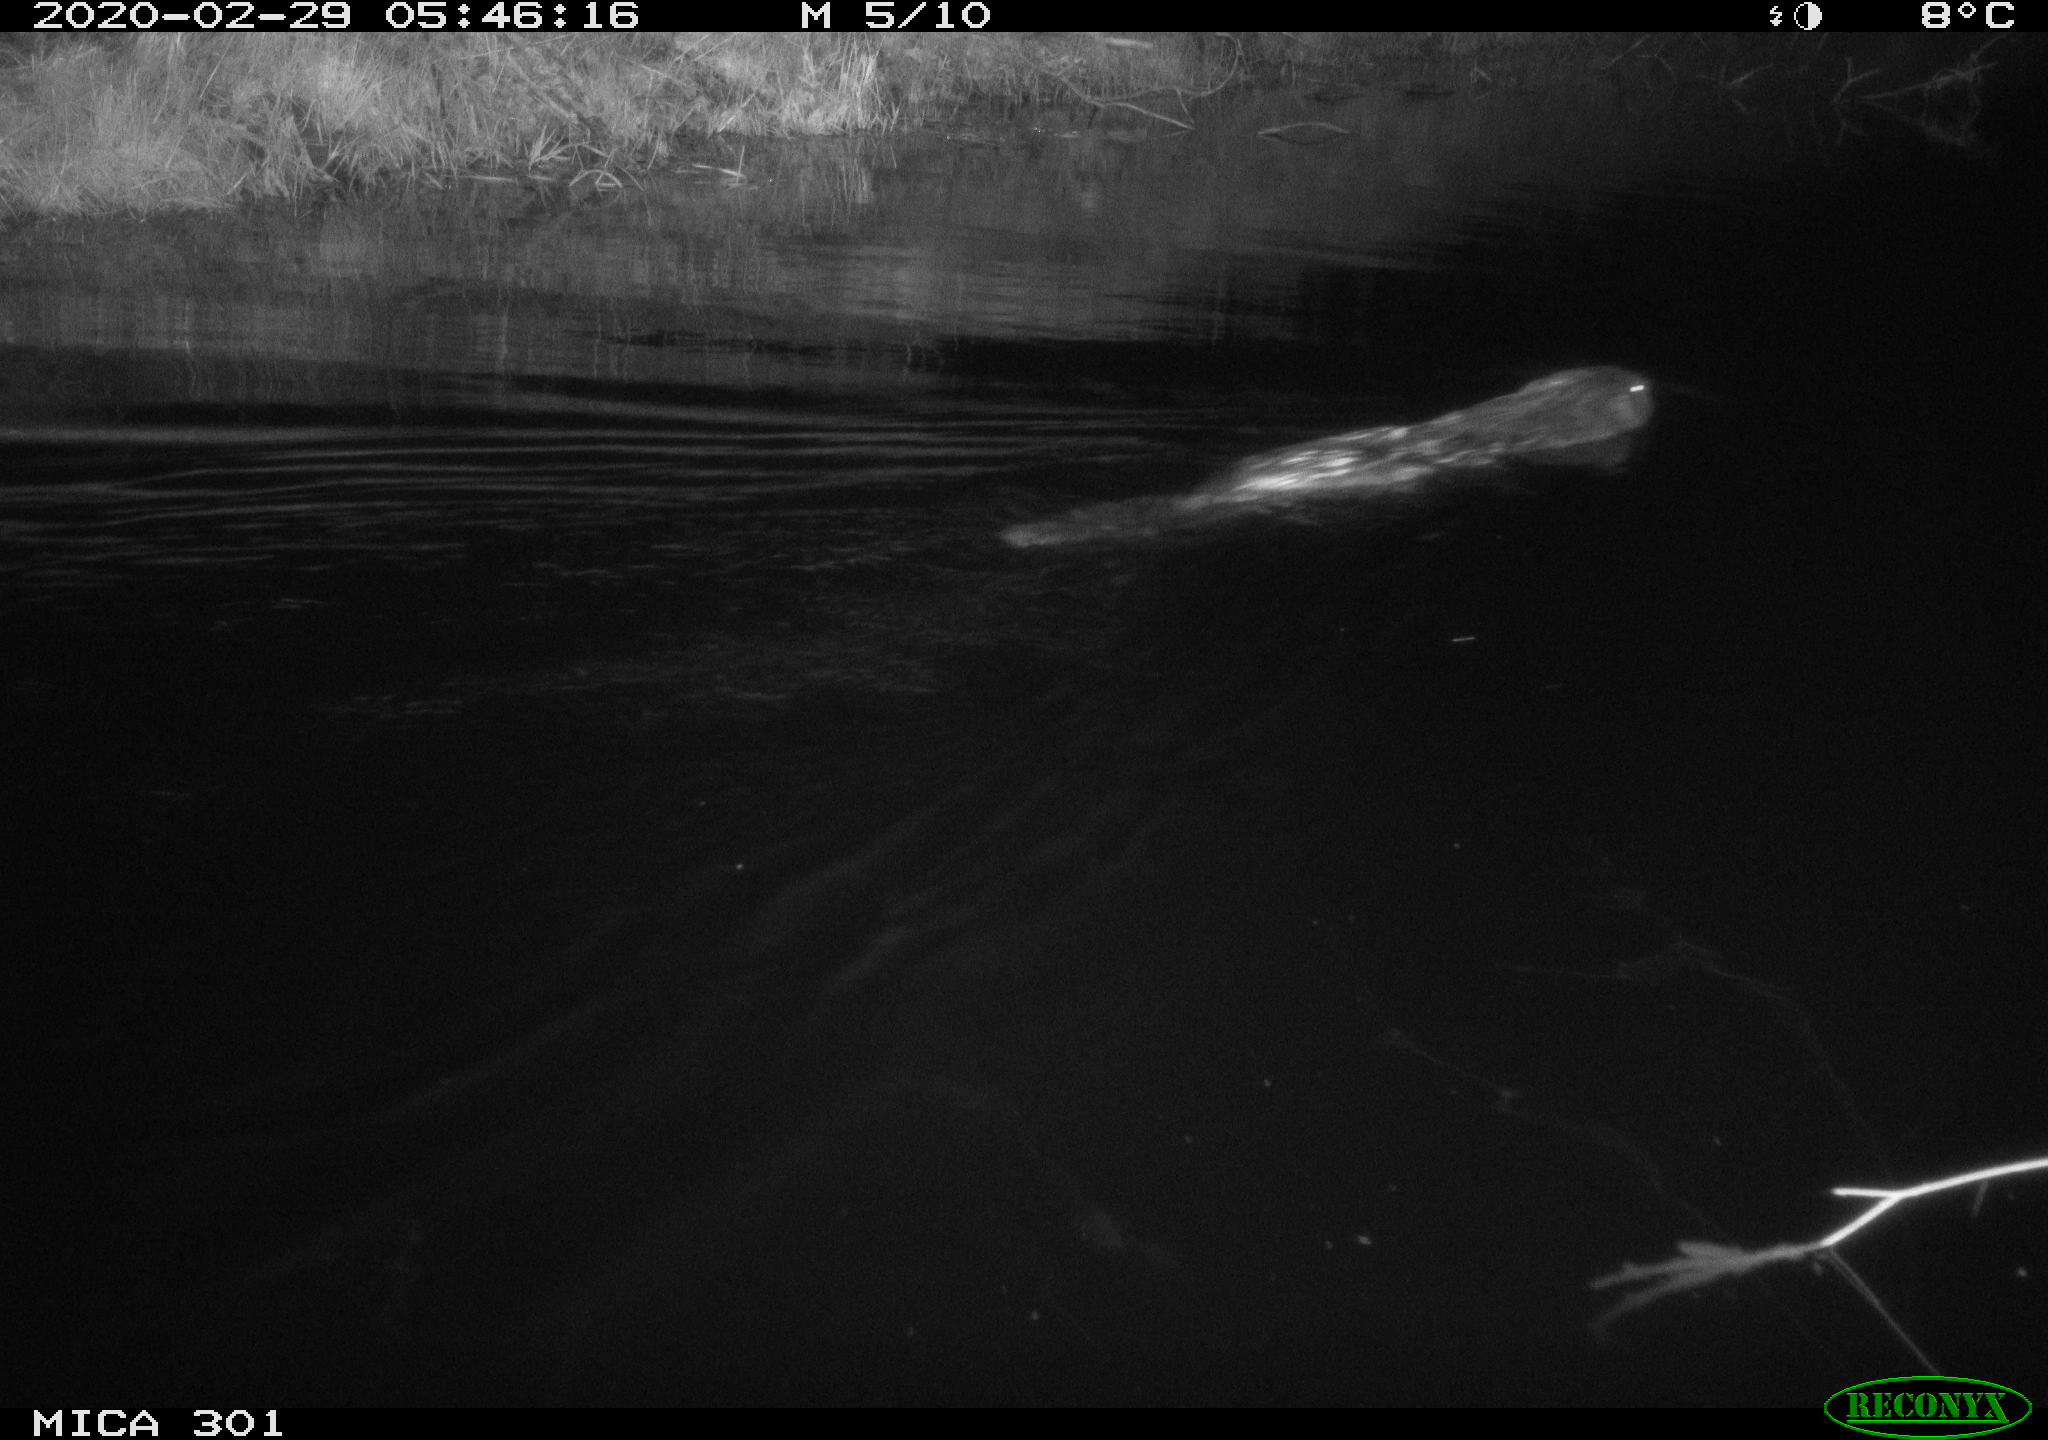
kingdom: Animalia
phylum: Chordata
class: Mammalia
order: Rodentia
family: Castoridae
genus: Castor
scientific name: Castor fiber
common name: Eurasian beaver
